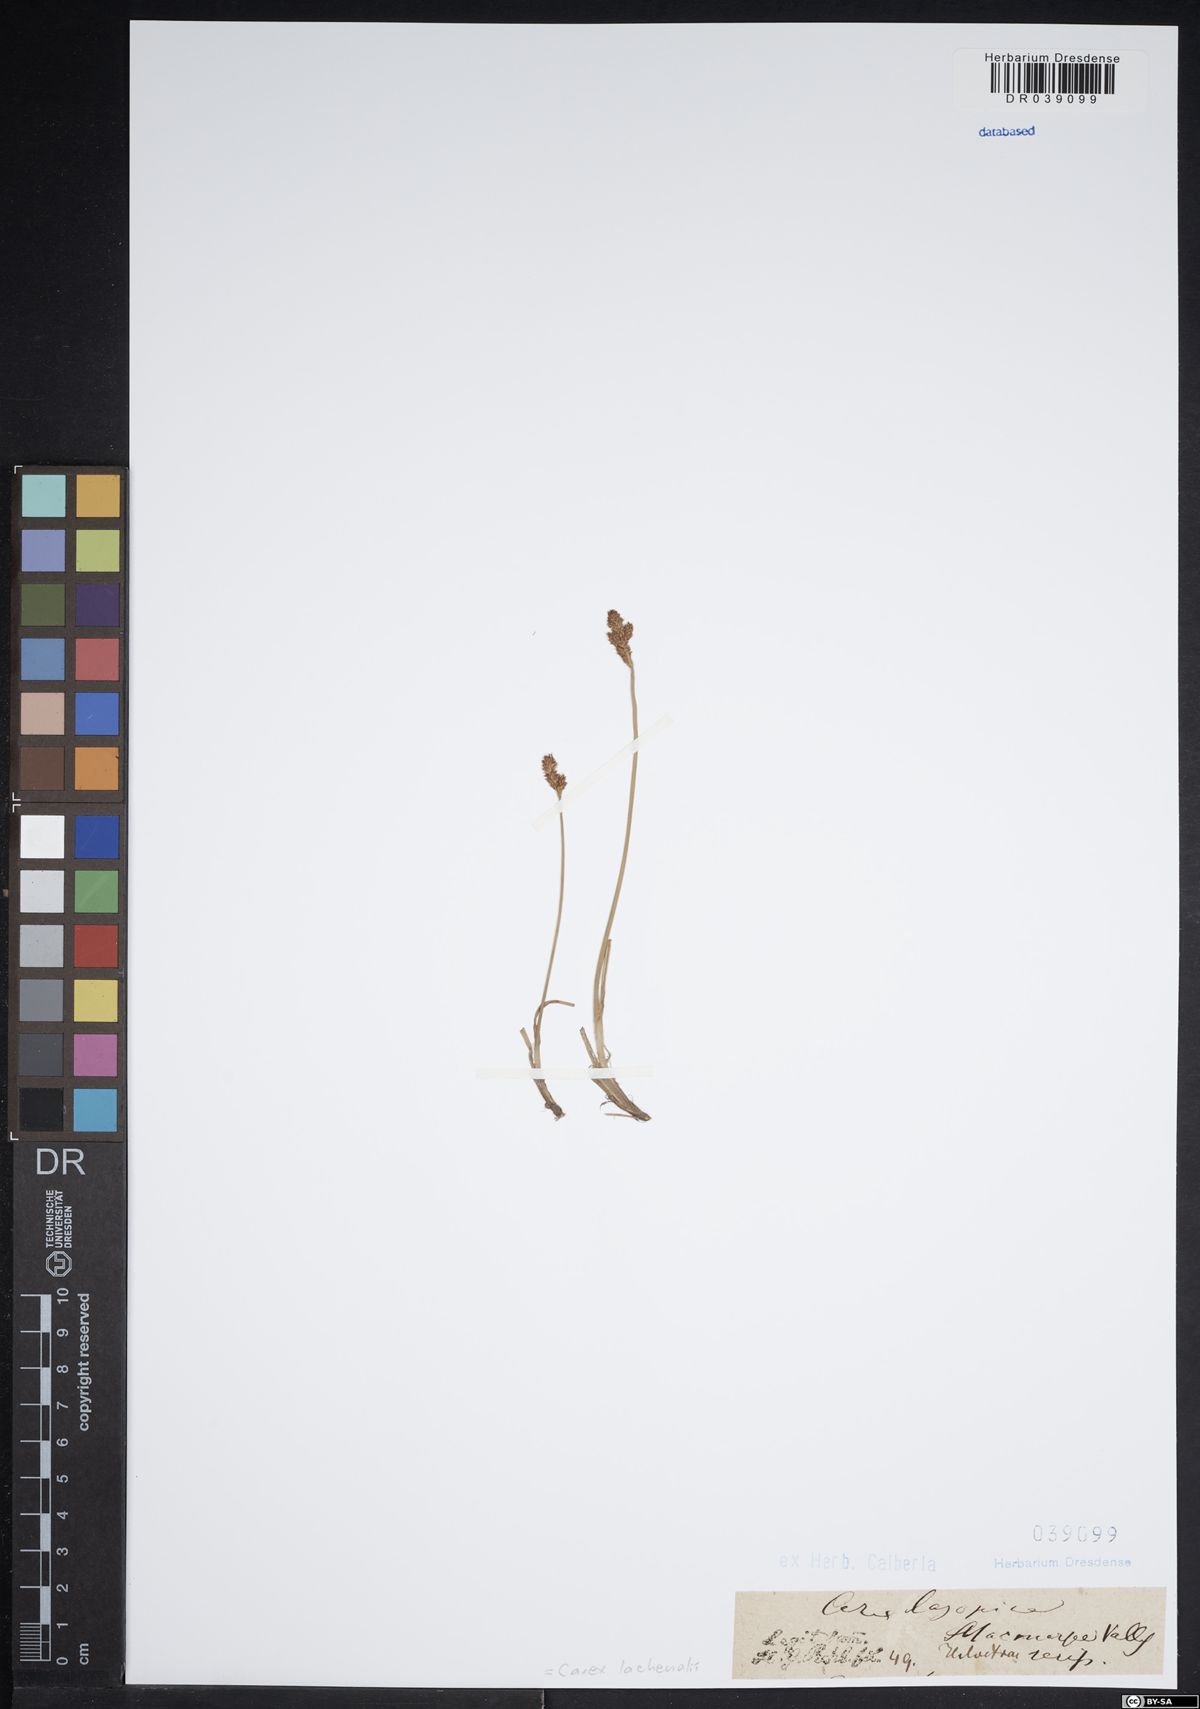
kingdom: Plantae
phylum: Tracheophyta
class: Liliopsida
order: Poales
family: Cyperaceae
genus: Carex
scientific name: Carex lachenalii
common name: Hare's-foot sedge
